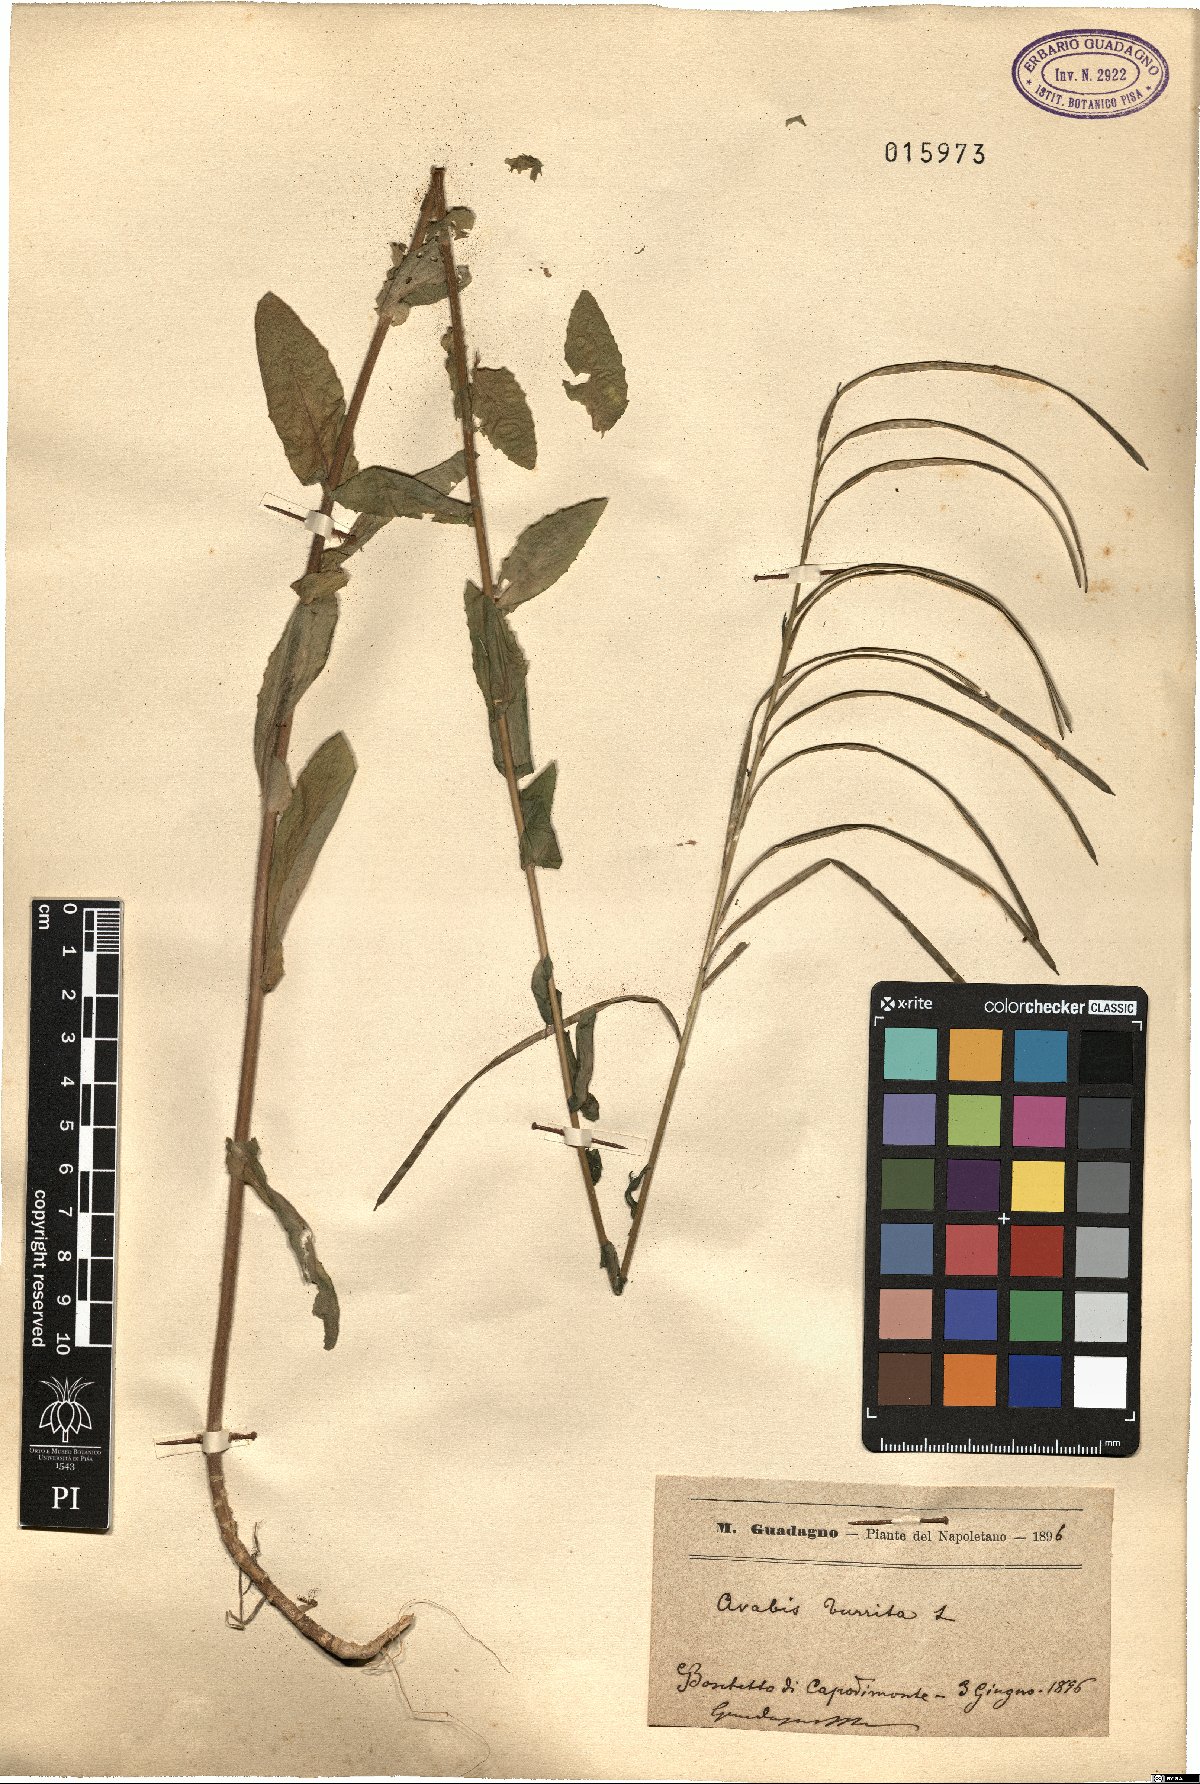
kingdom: Plantae
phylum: Tracheophyta
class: Magnoliopsida
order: Brassicales
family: Brassicaceae
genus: Pseudoturritis
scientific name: Pseudoturritis turrita
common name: Tower cress
